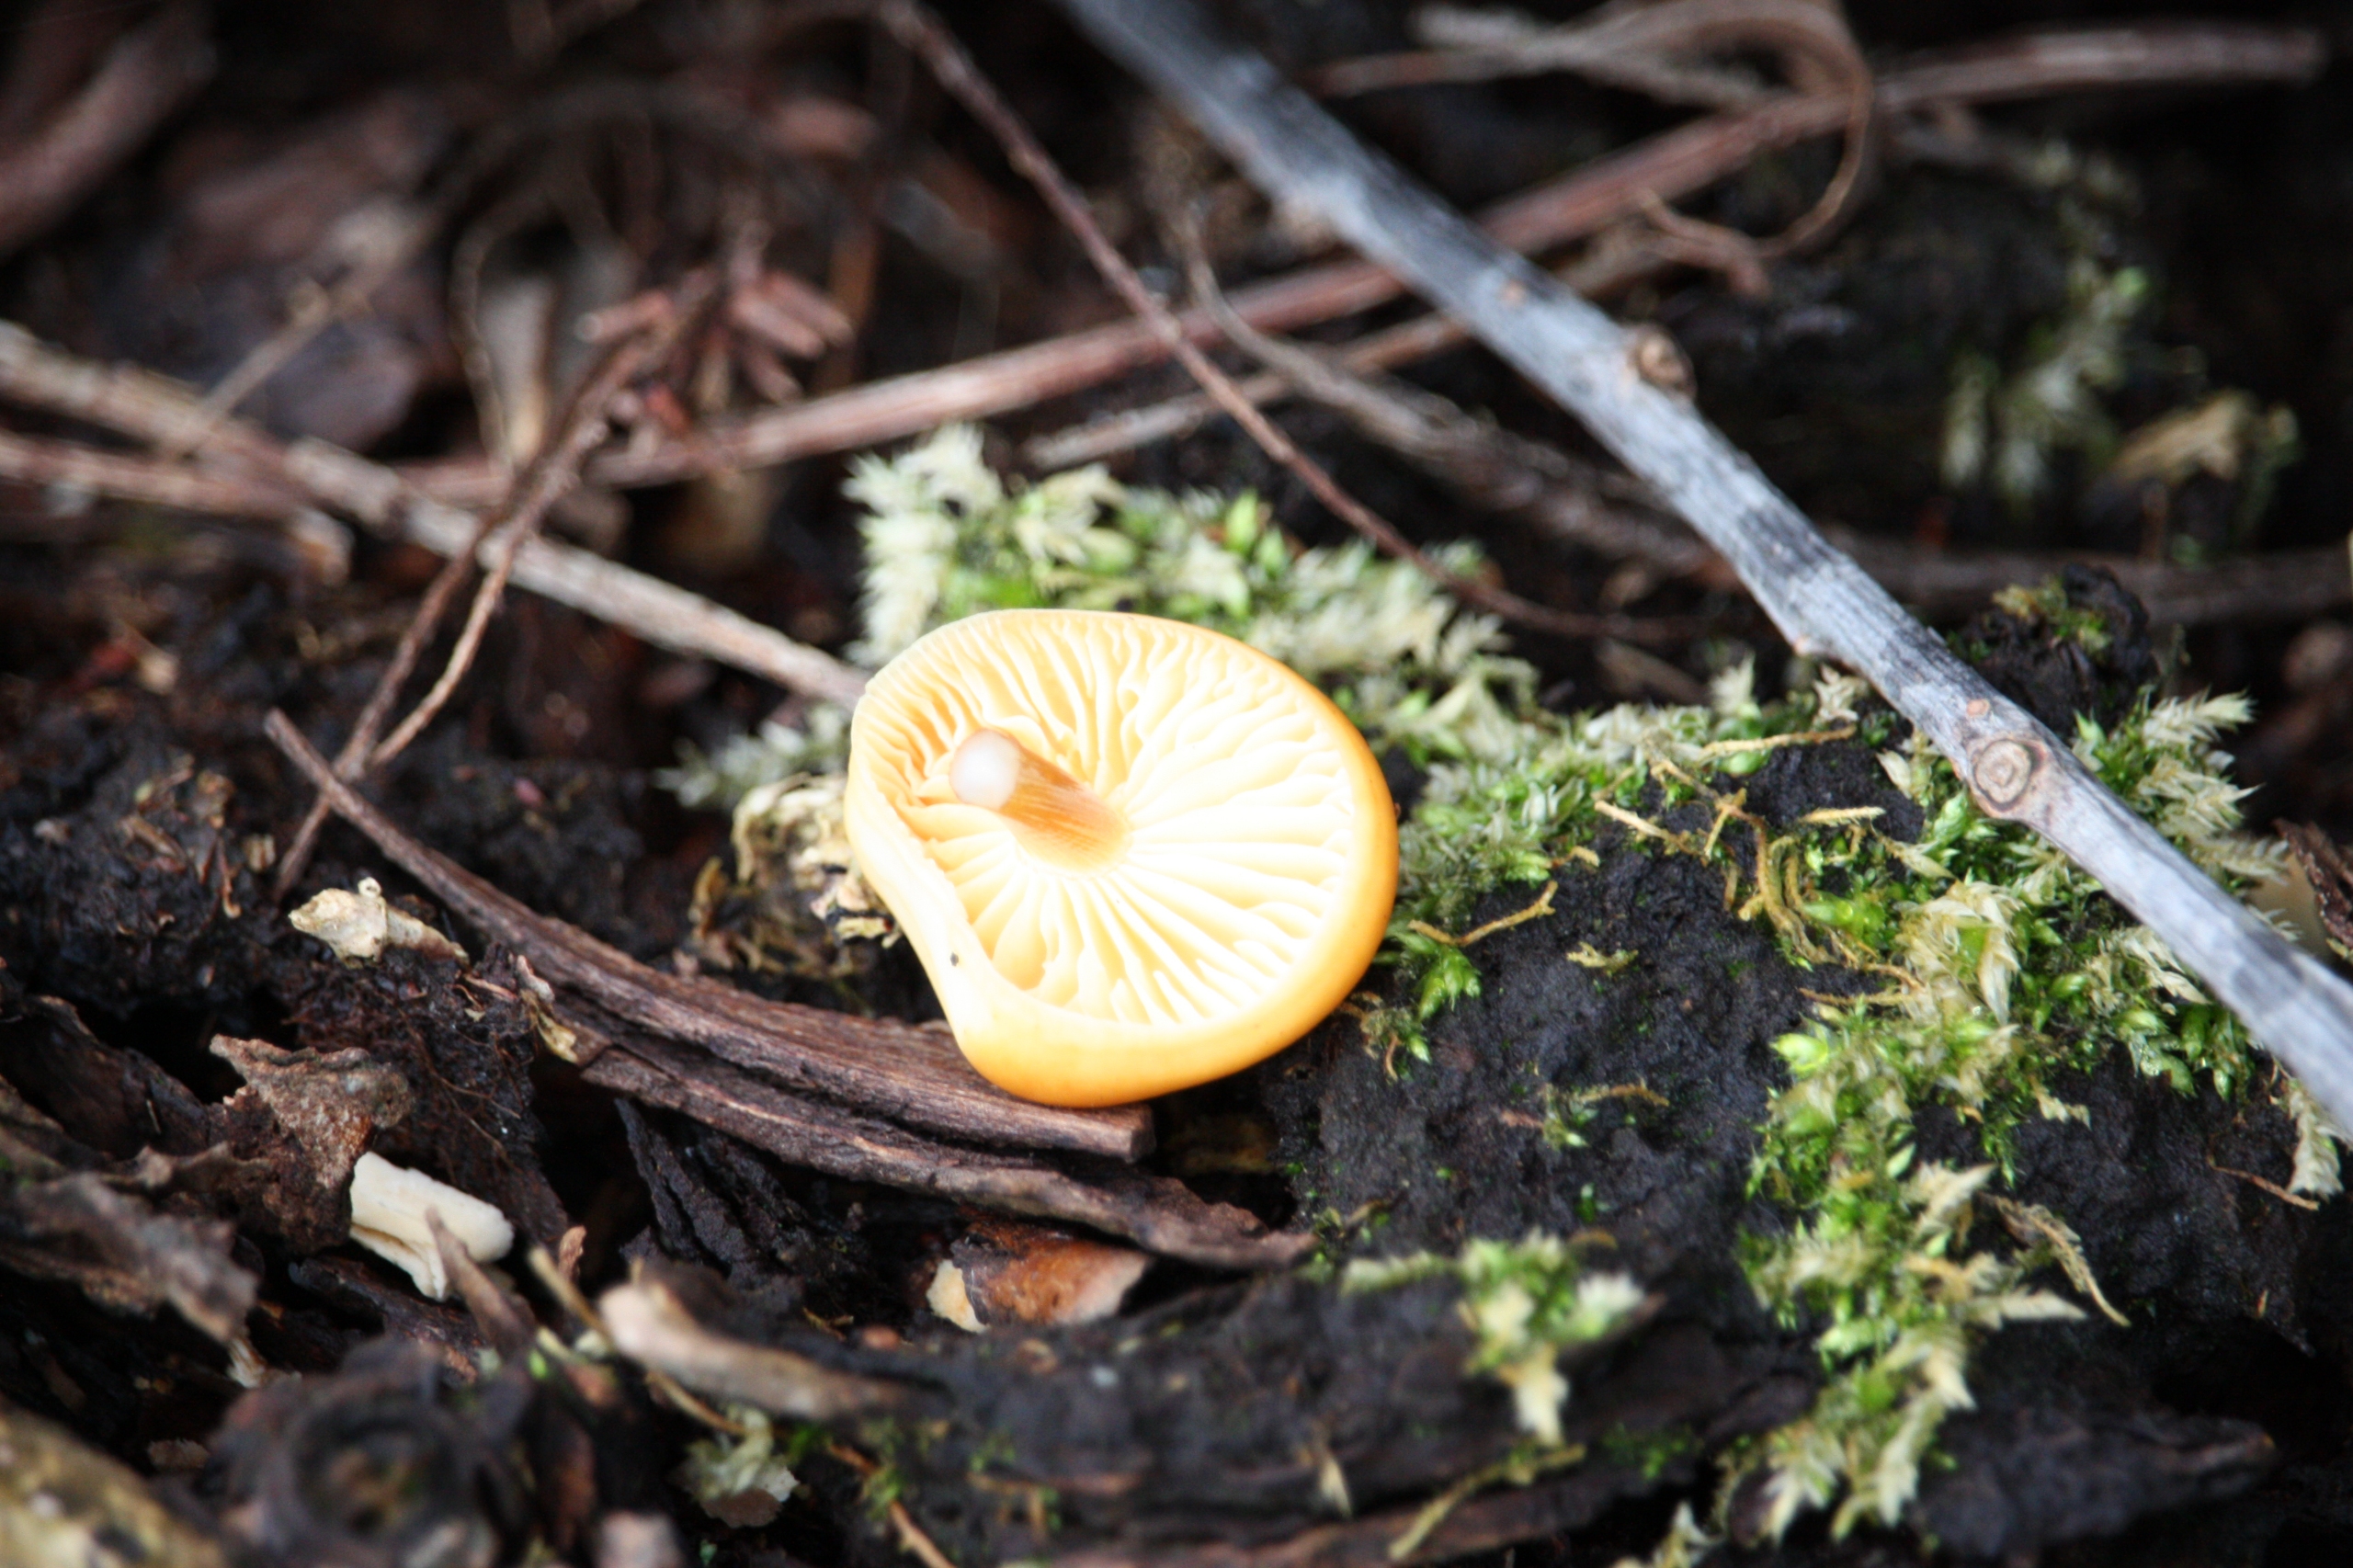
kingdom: Fungi
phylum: Basidiomycota
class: Agaricomycetes
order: Agaricales
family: Physalacriaceae
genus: Flammulina
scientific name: Flammulina
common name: Fløjlsfod
